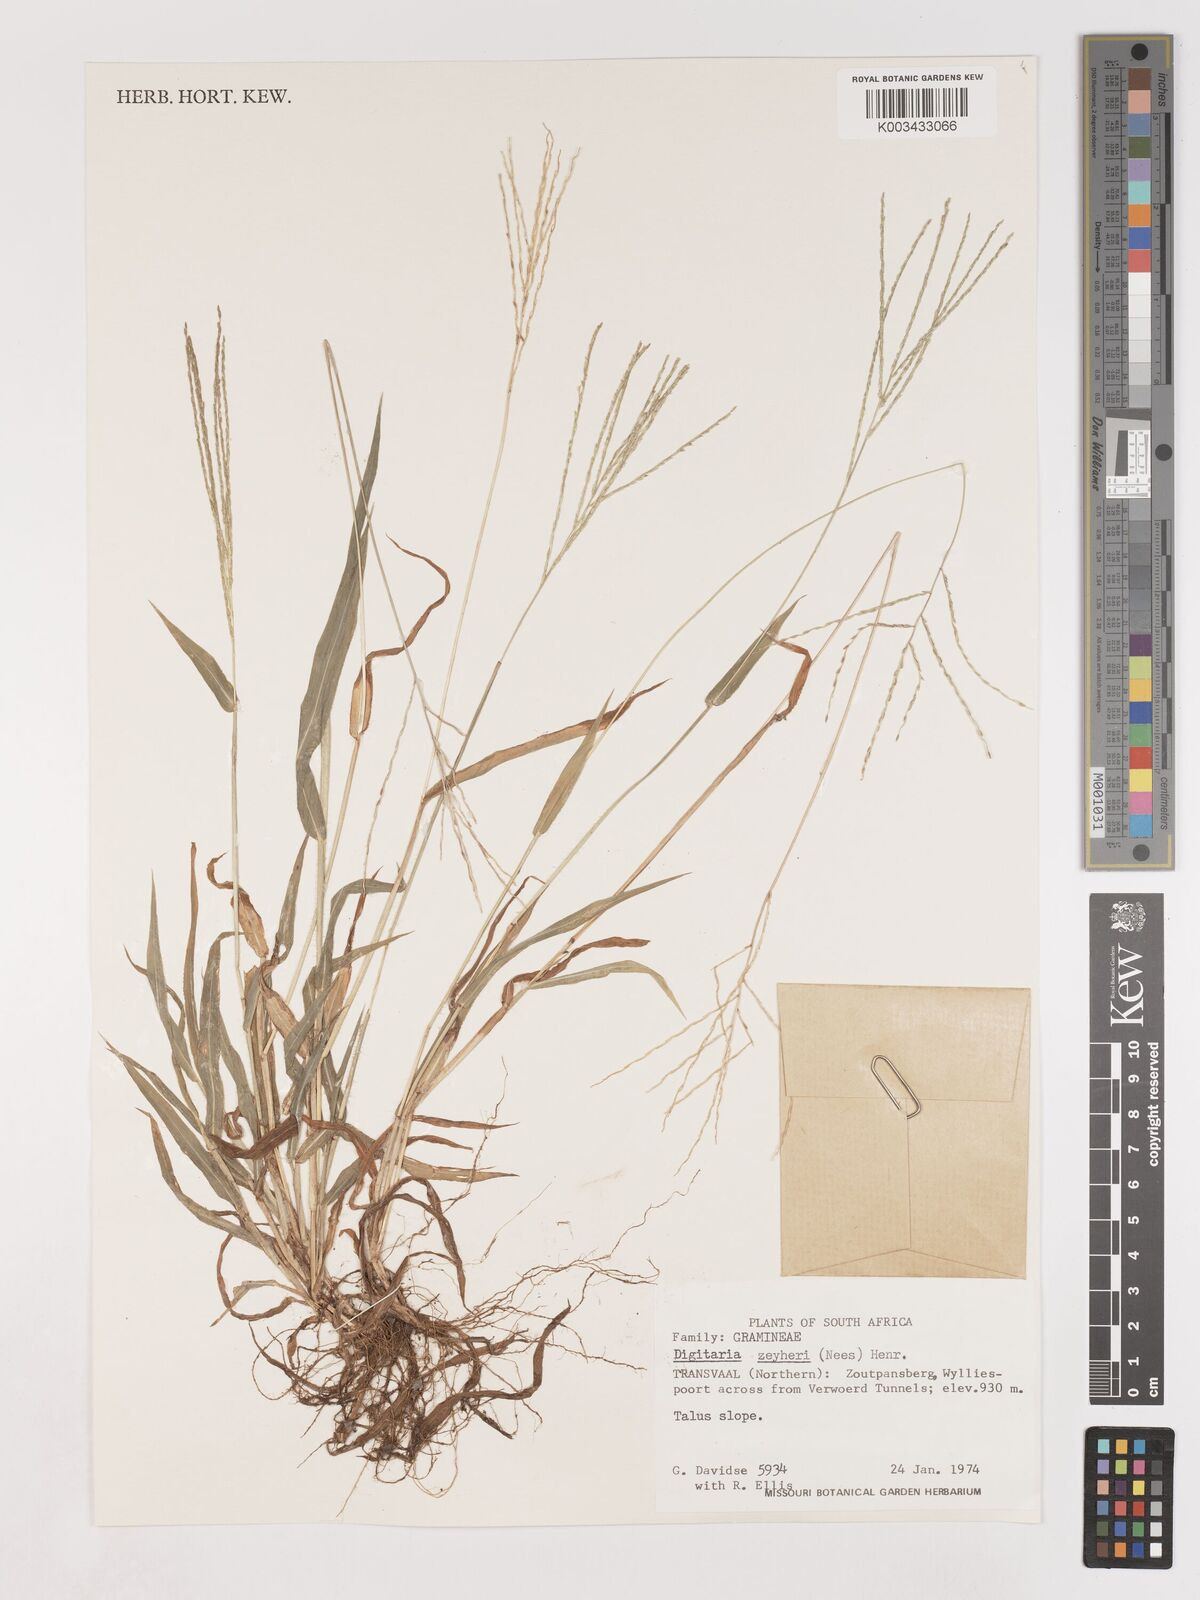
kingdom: Plantae
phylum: Tracheophyta
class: Liliopsida
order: Poales
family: Poaceae
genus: Digitaria
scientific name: Digitaria velutina
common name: Long-plume finger grass
